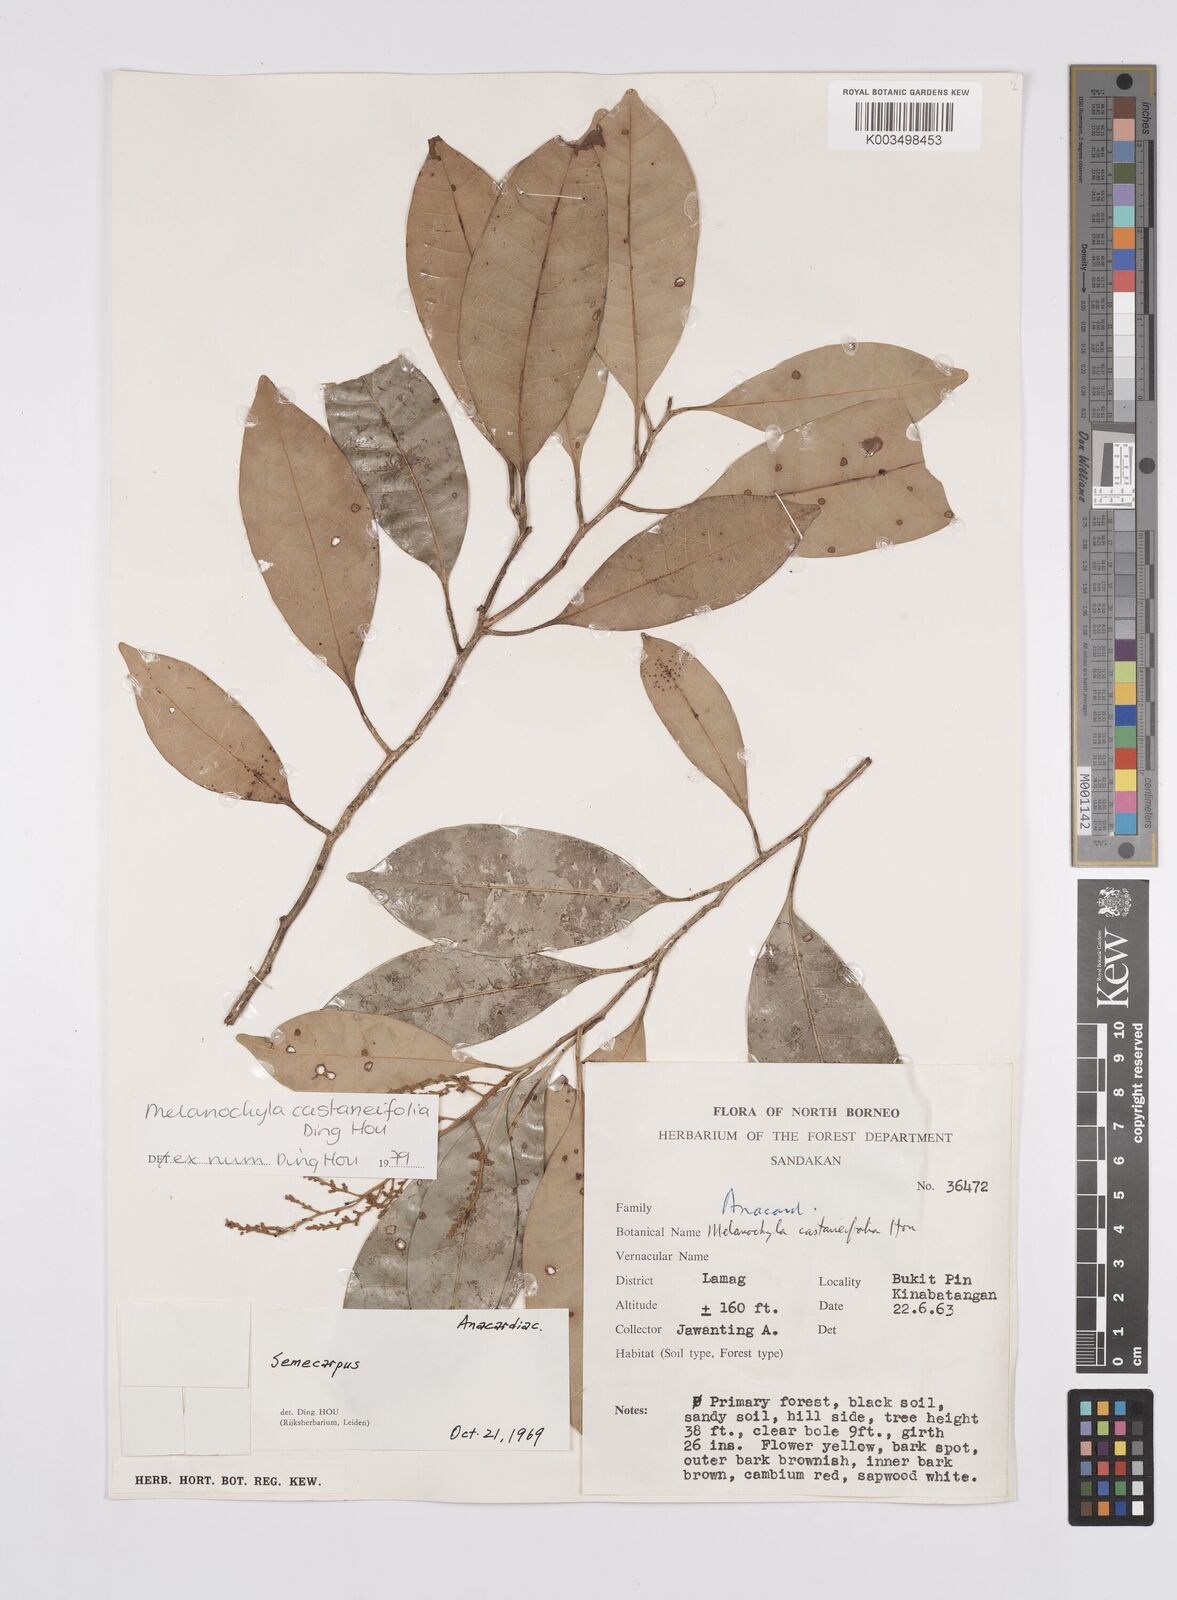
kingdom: Plantae
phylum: Tracheophyta
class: Magnoliopsida
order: Sapindales
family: Anacardiaceae
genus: Melanochyla
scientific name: Melanochyla castaneifolia
